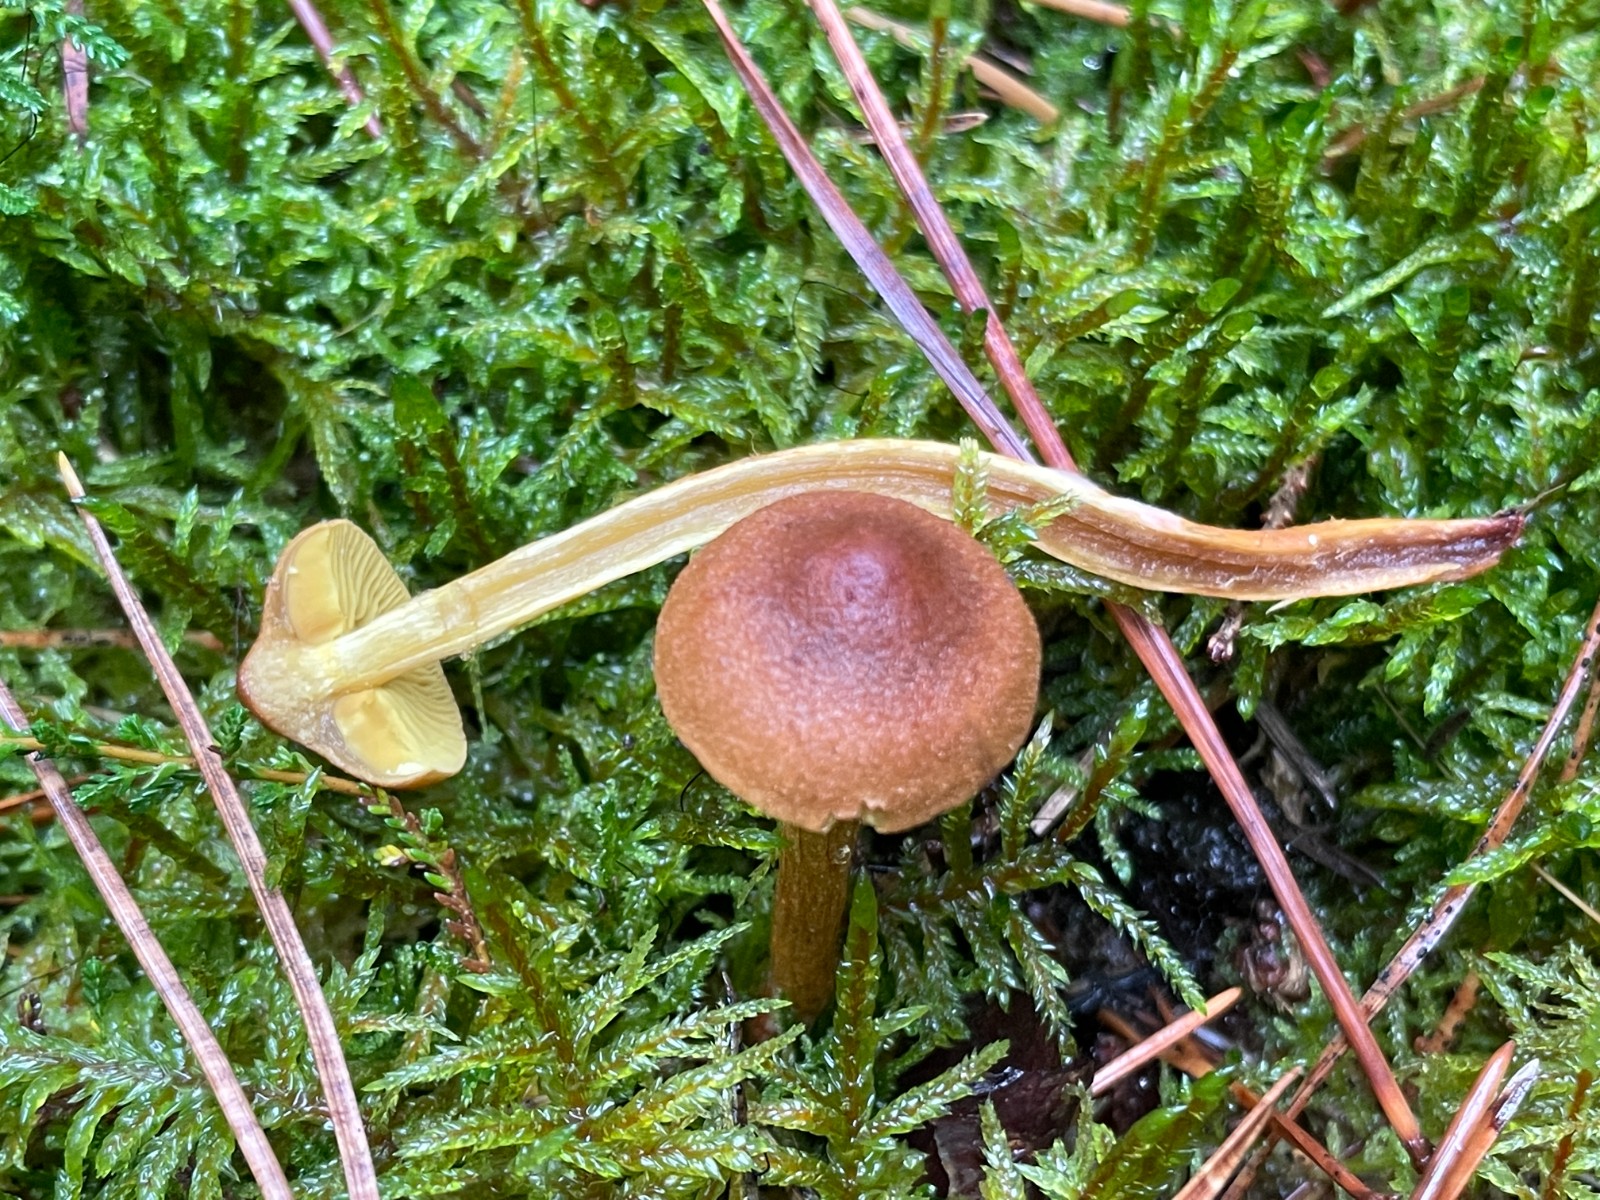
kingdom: Fungi
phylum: Basidiomycota
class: Agaricomycetes
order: Agaricales
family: Cortinariaceae
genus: Cortinarius
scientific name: Cortinarius bataillei
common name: orangefodet slørhat
